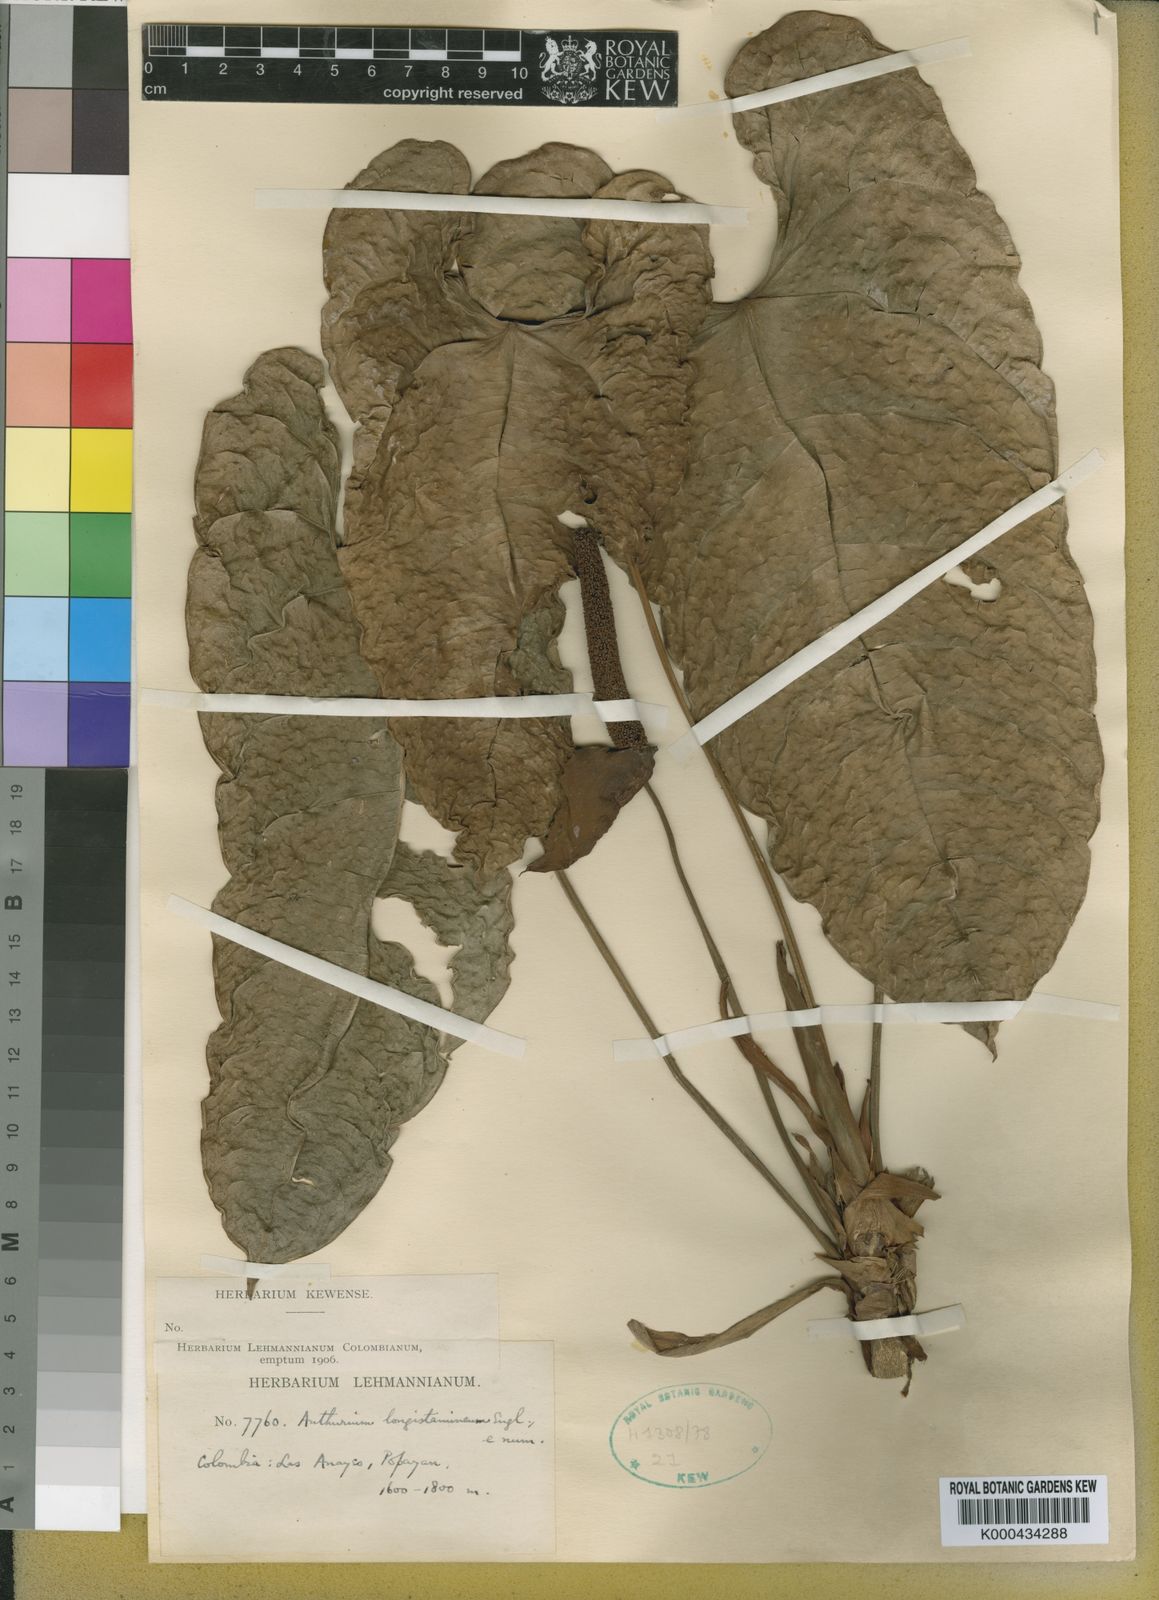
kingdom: Plantae
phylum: Tracheophyta
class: Liliopsida
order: Alismatales
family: Araceae
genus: Anthurium
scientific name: Anthurium longistamineum
